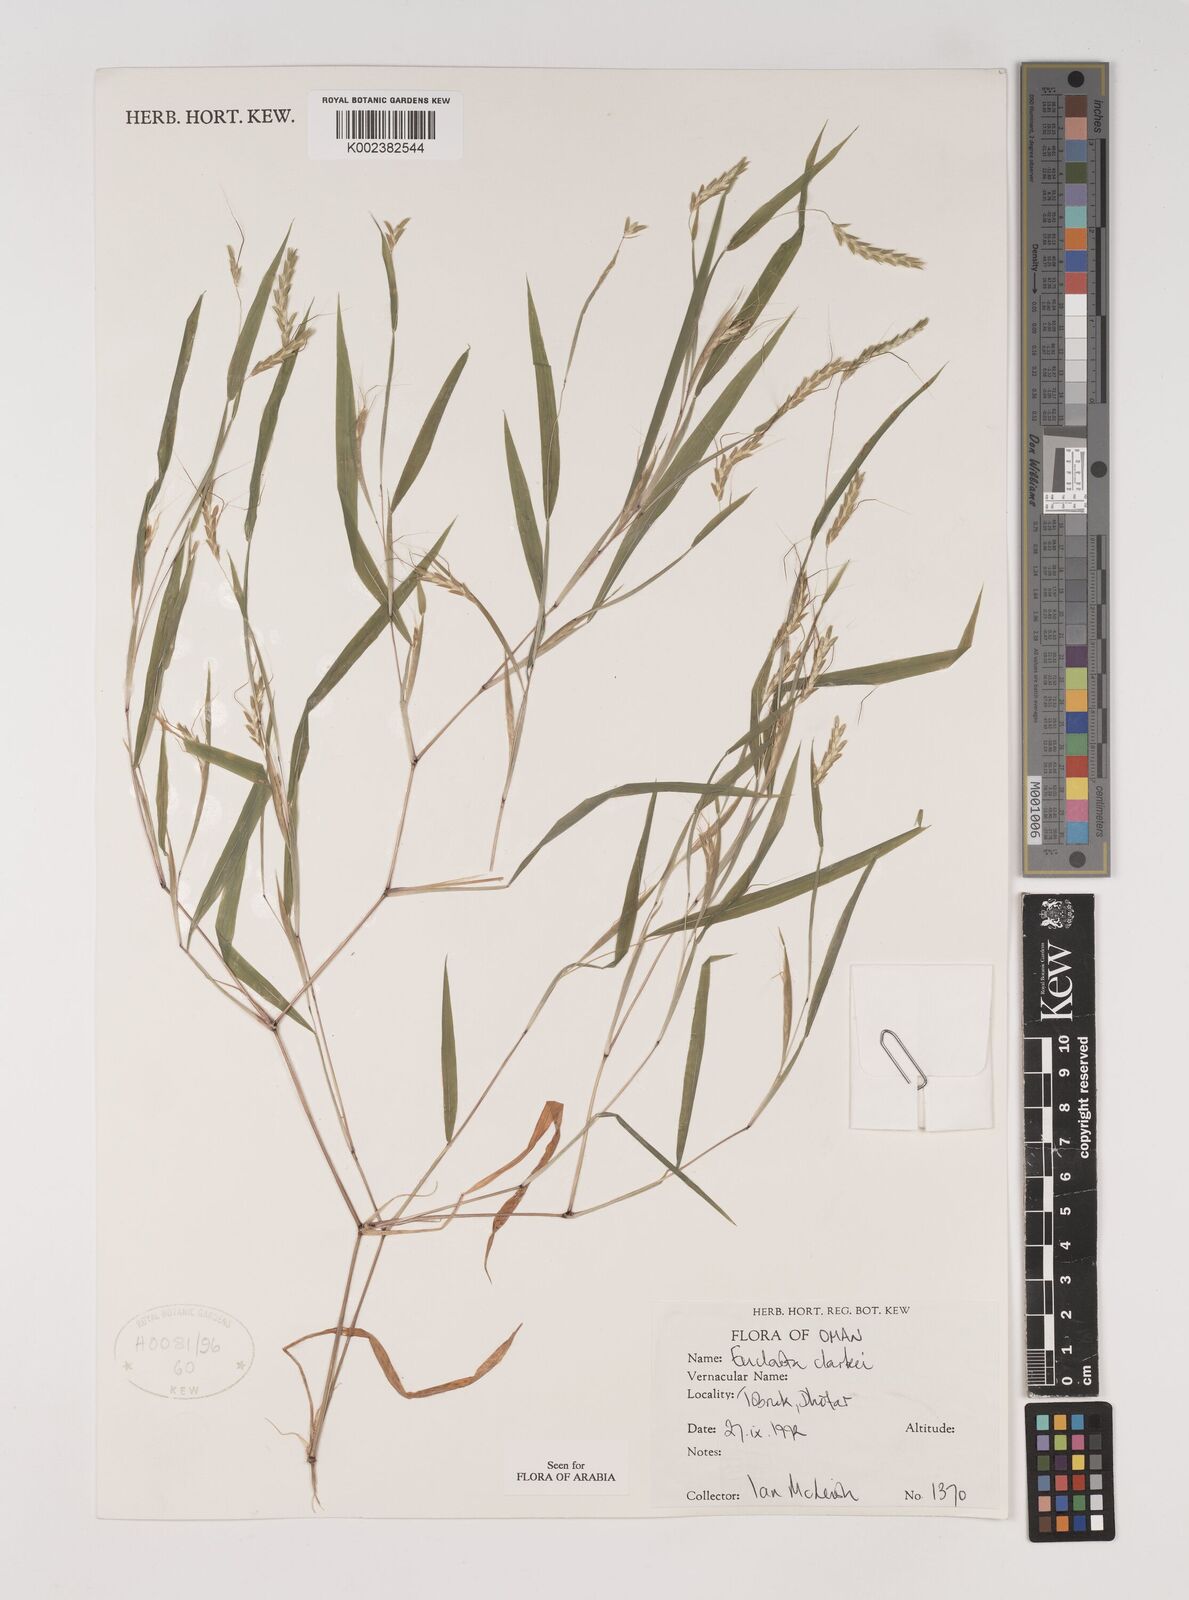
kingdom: Plantae
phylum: Tracheophyta
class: Liliopsida
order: Poales
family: Poaceae
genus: Euclasta
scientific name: Euclasta clarkei
